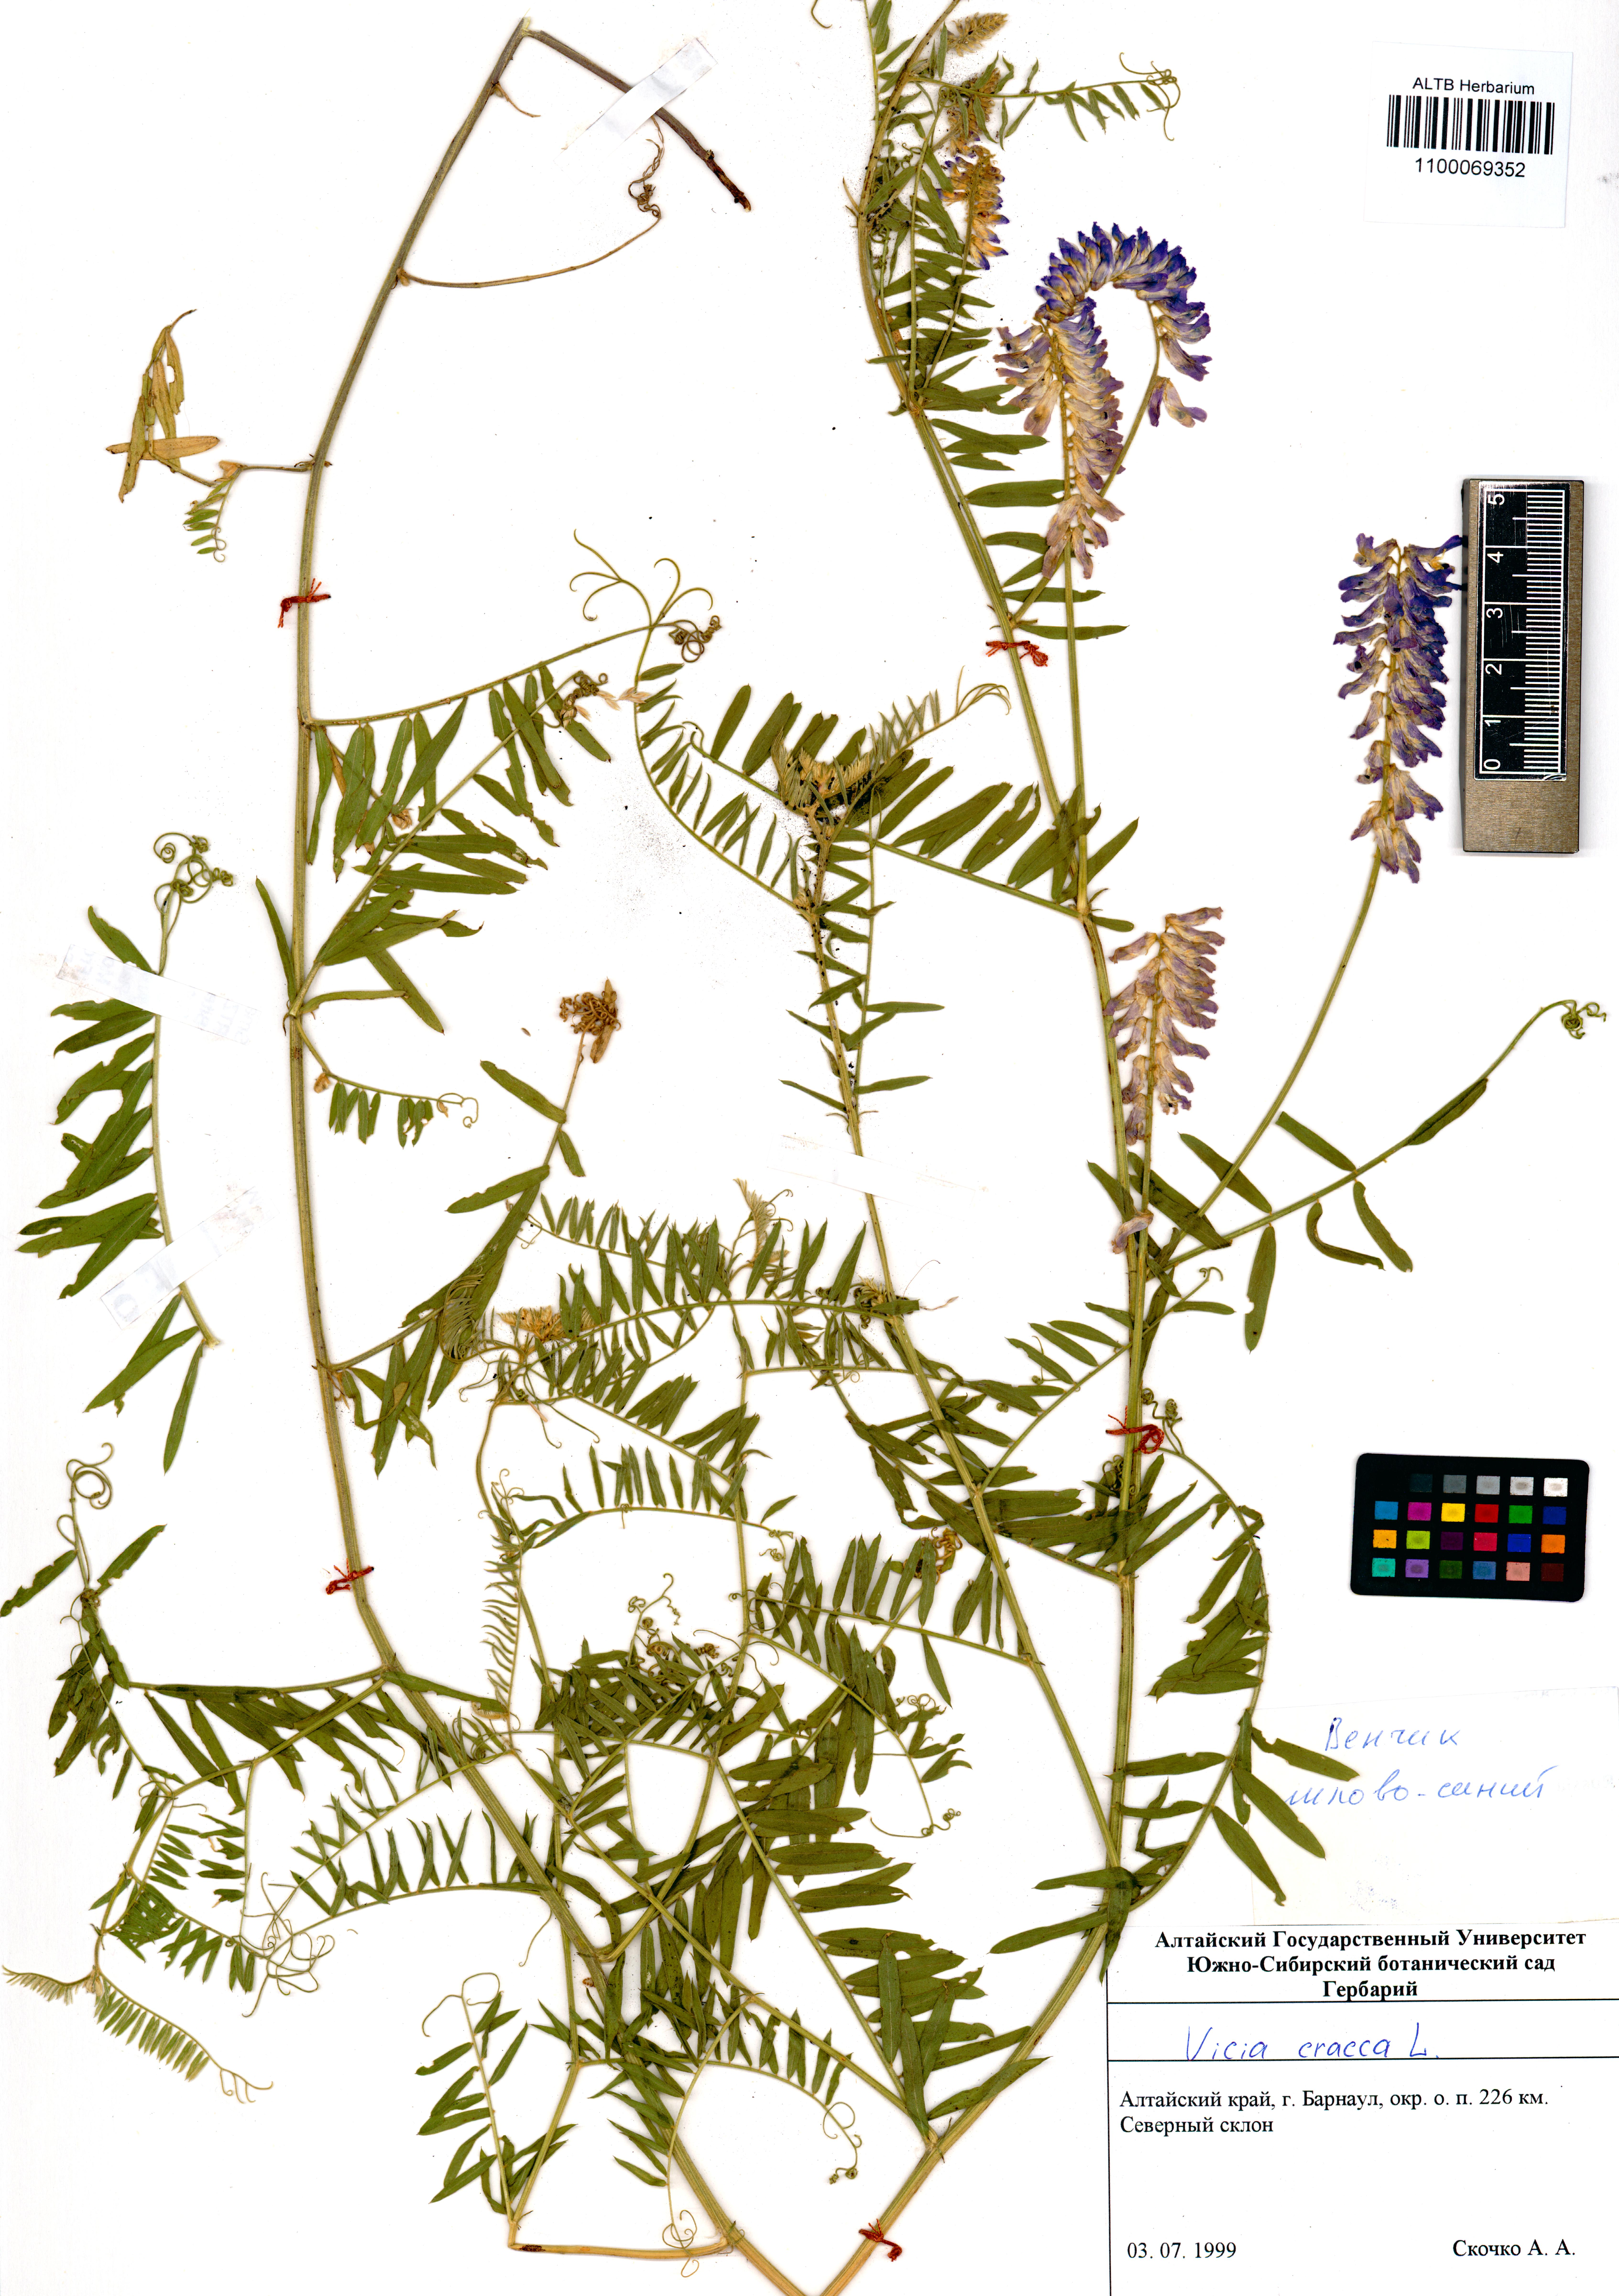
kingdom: Plantae
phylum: Tracheophyta
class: Magnoliopsida
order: Fabales
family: Fabaceae
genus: Vicia
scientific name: Vicia cracca
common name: Bird vetch
